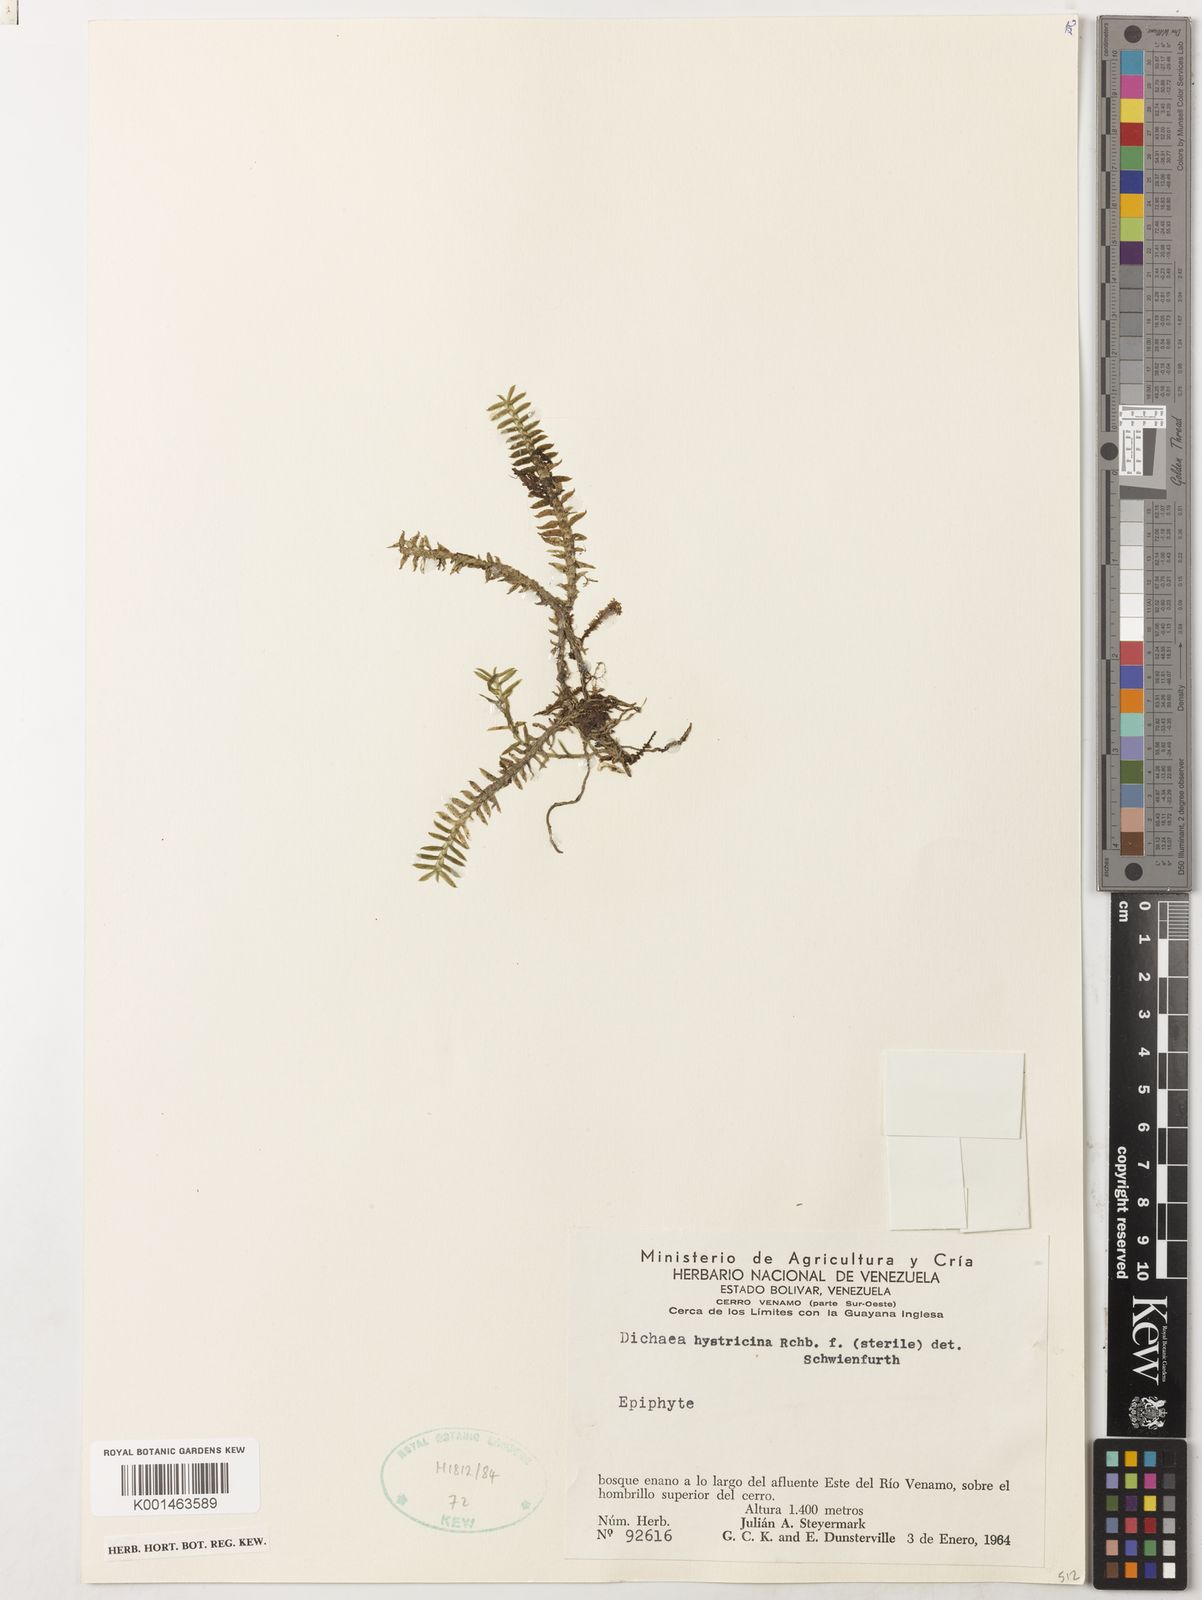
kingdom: Plantae
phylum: Tracheophyta
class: Liliopsida
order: Asparagales
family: Orchidaceae
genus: Dichaea
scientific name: Dichaea hystricina
